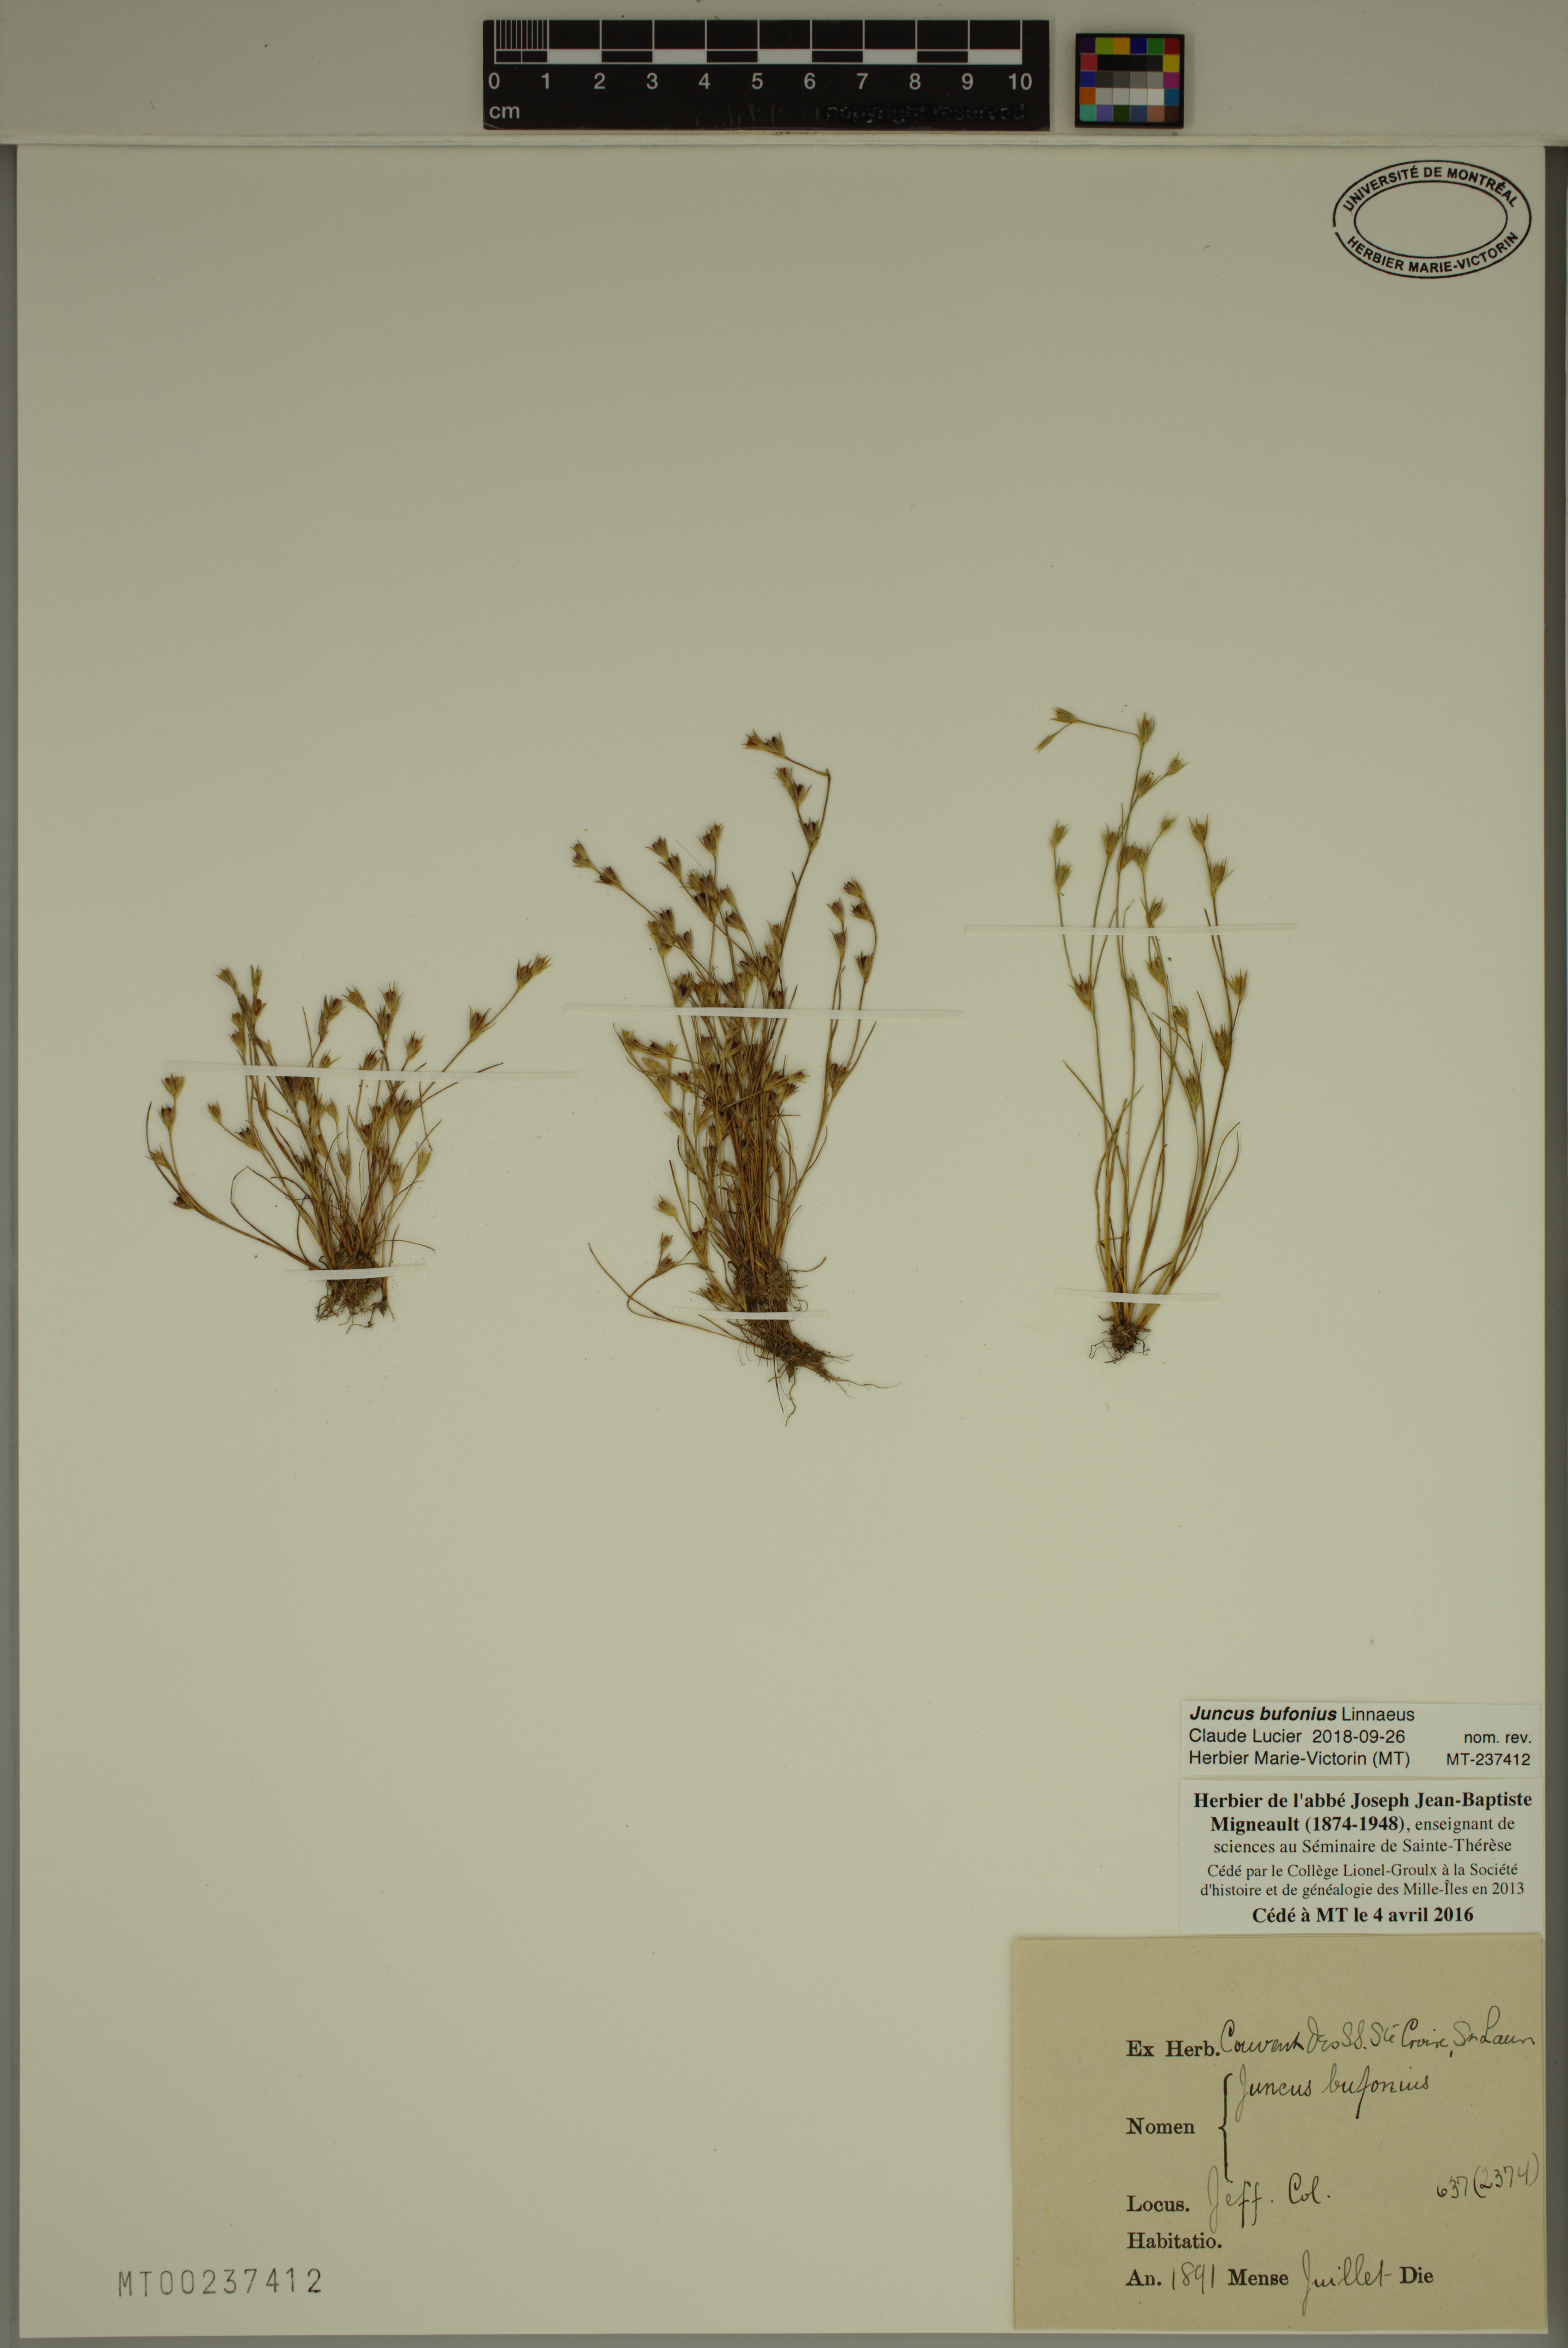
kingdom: Plantae
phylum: Tracheophyta
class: Liliopsida
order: Poales
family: Juncaceae
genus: Juncus
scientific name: Juncus bufonius
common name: Toad rush
